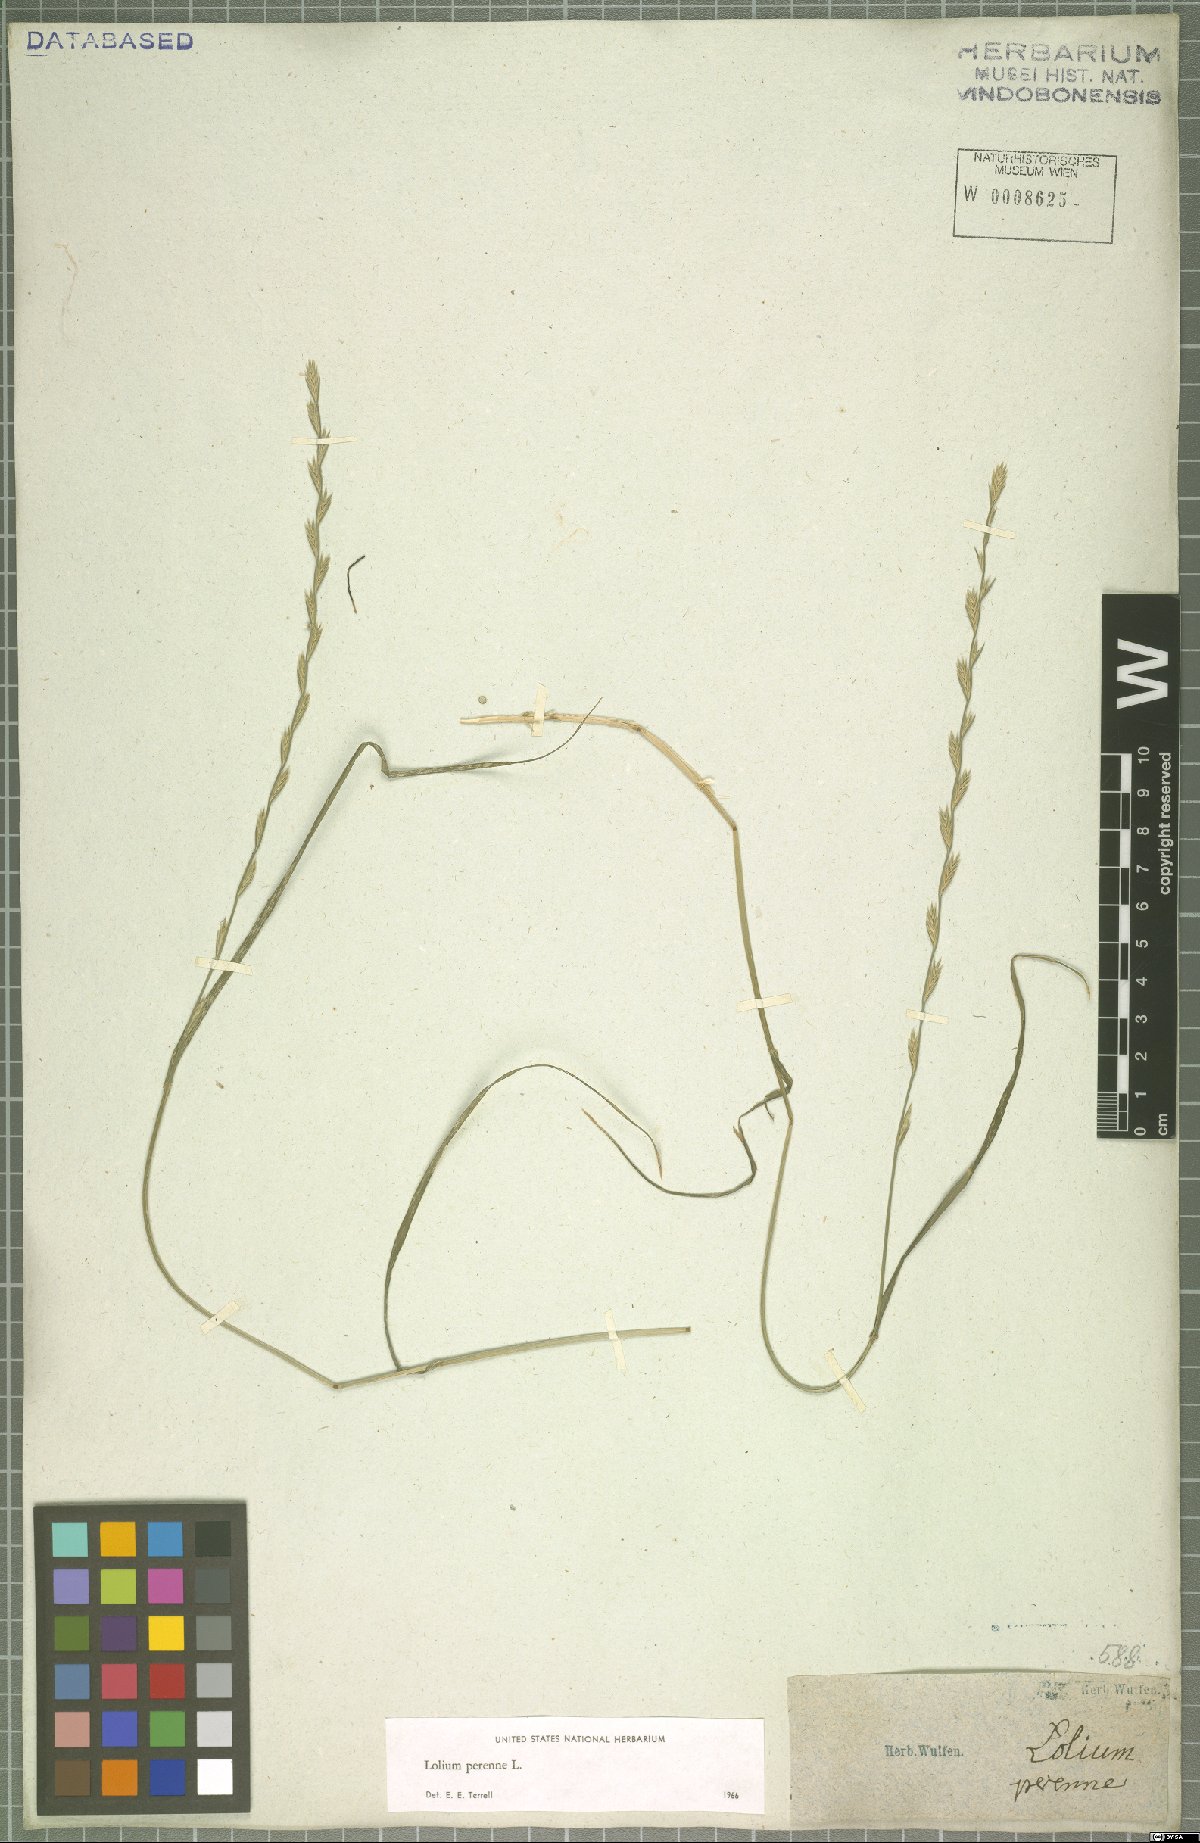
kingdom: Plantae
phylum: Tracheophyta
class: Liliopsida
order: Poales
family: Poaceae
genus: Lolium
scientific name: Lolium perenne
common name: Perennial ryegrass
